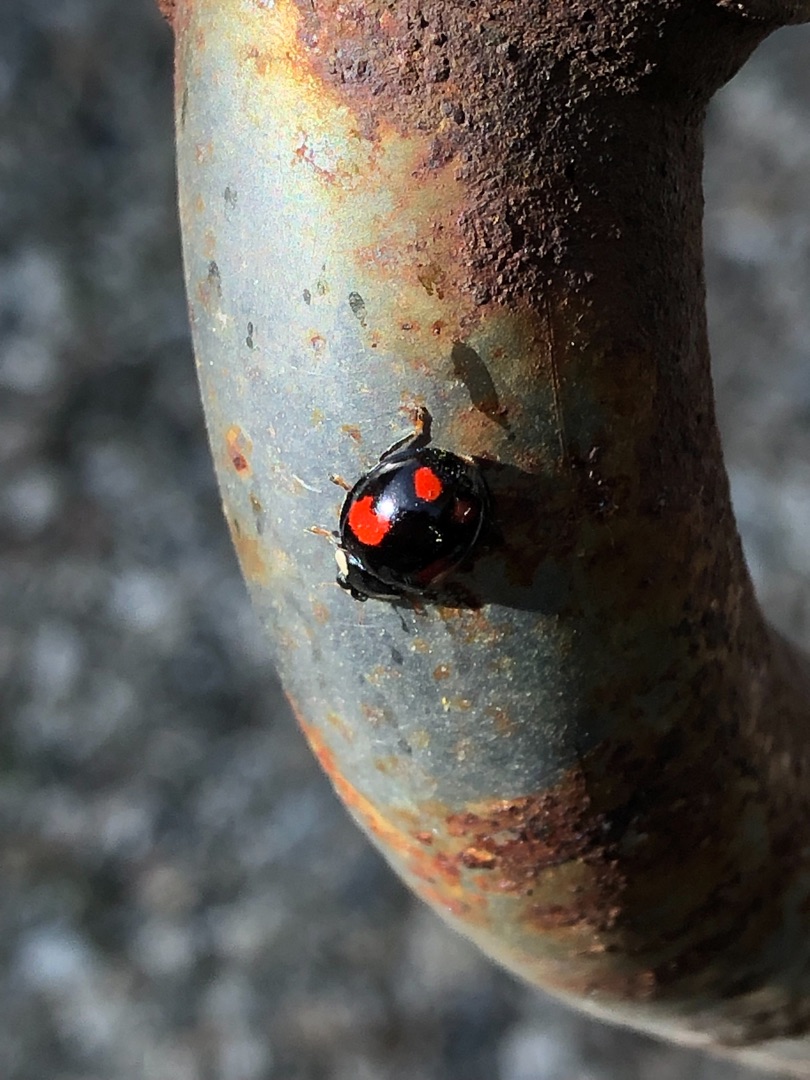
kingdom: Animalia
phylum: Arthropoda
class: Insecta
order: Coleoptera
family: Coccinellidae
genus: Harmonia
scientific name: Harmonia axyridis
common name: Harlekinmariehøne
